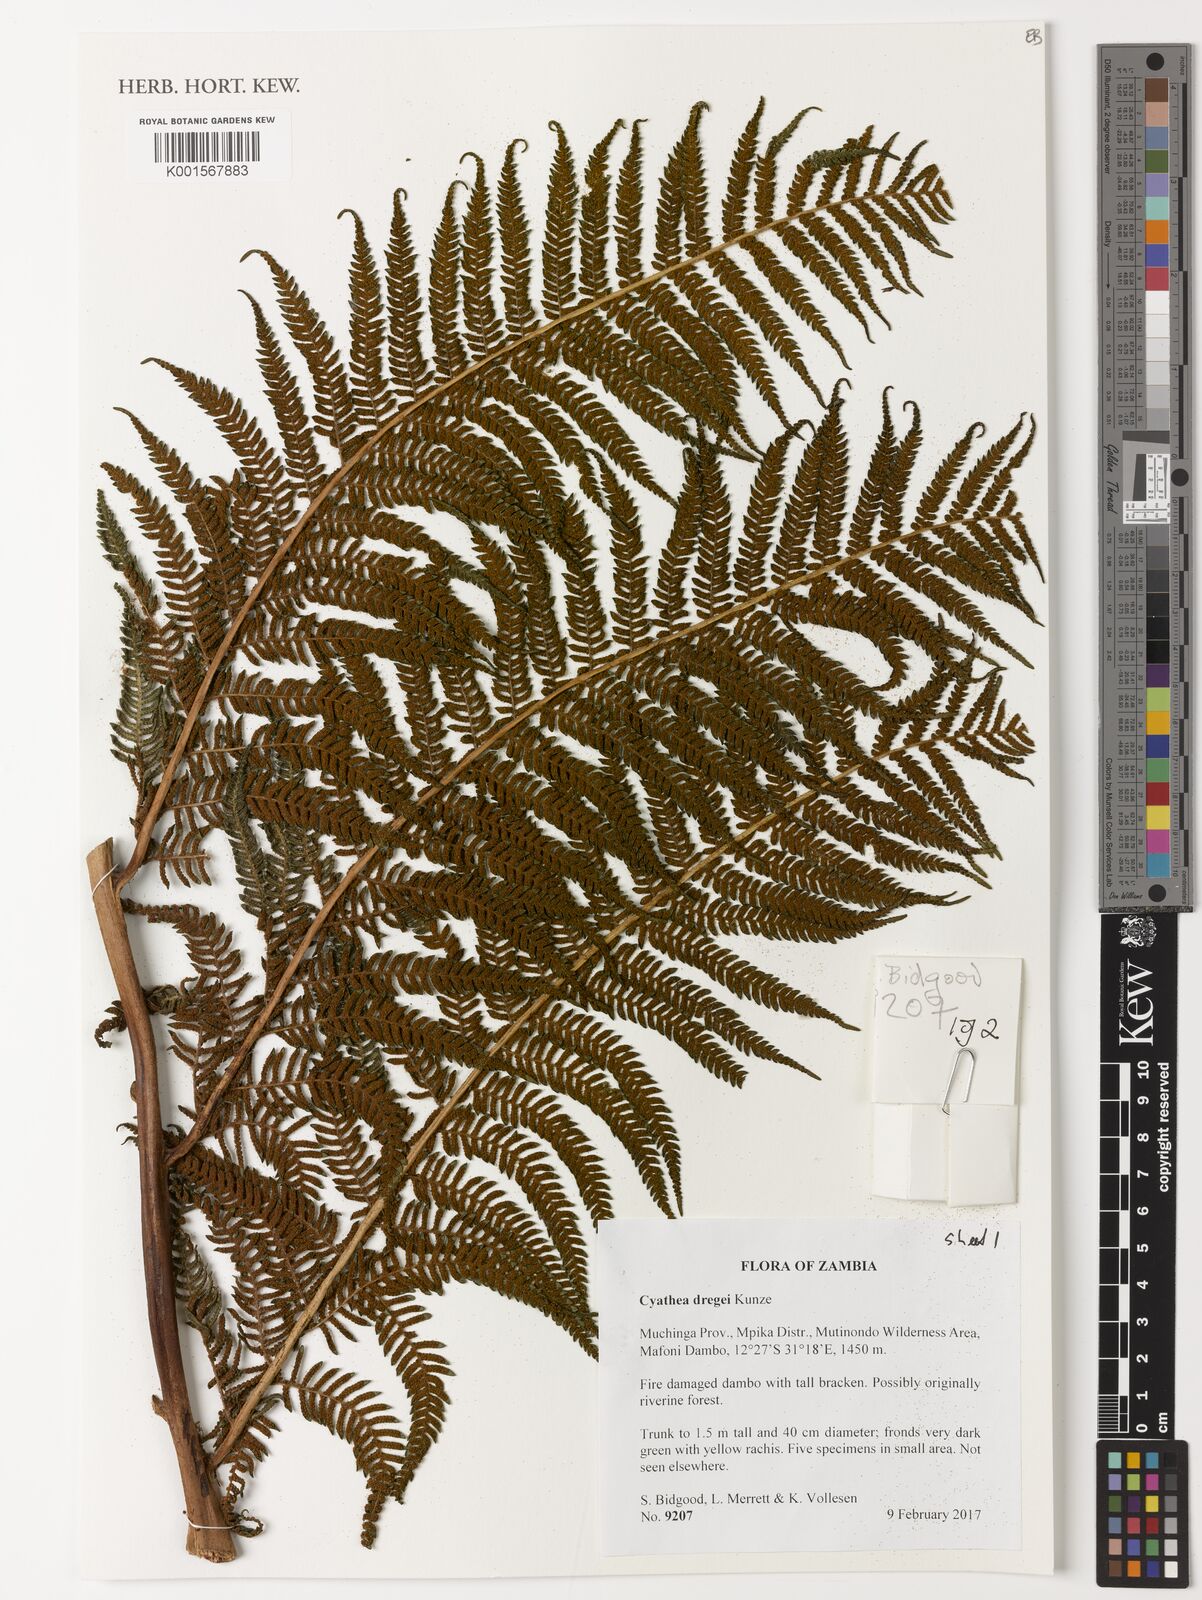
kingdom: Plantae
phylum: Tracheophyta
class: Polypodiopsida
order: Cyatheales
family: Cyatheaceae
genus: Alsophila
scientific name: Alsophila dregei
